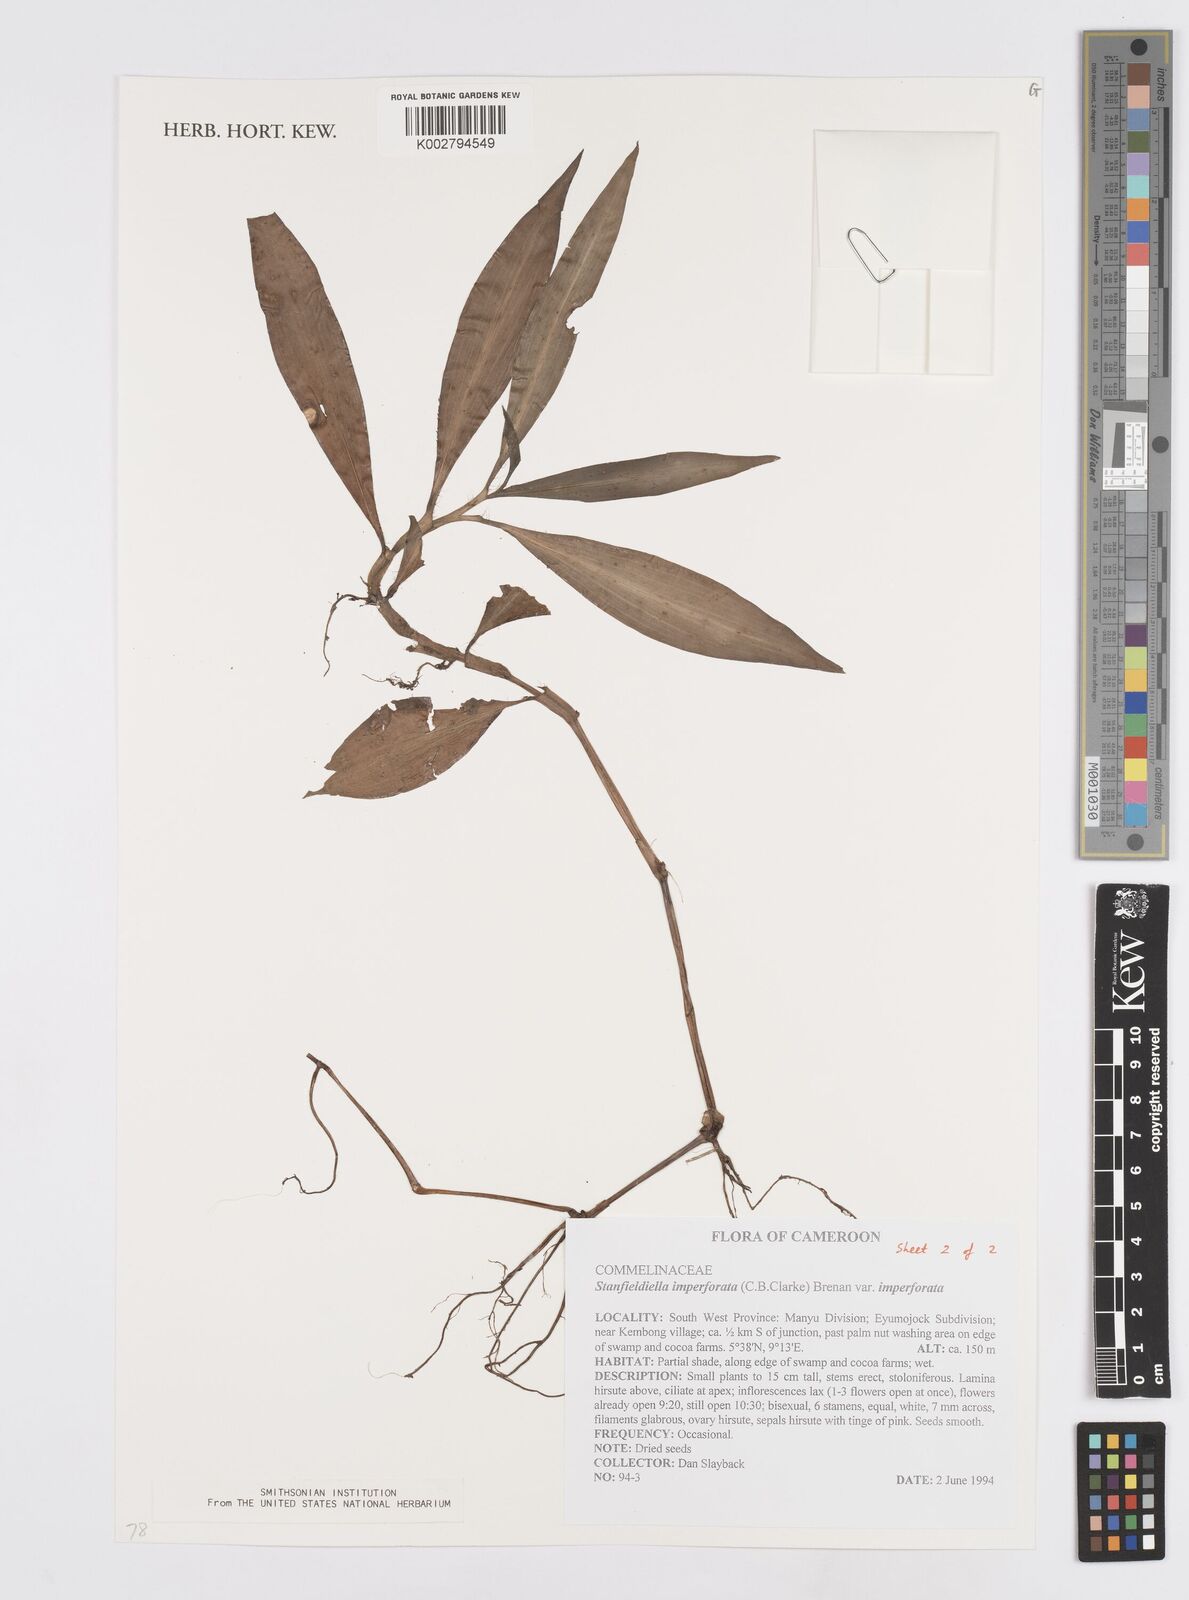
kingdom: Plantae
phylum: Tracheophyta
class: Liliopsida
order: Commelinales
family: Commelinaceae
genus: Stanfieldiella
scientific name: Stanfieldiella imperforata
